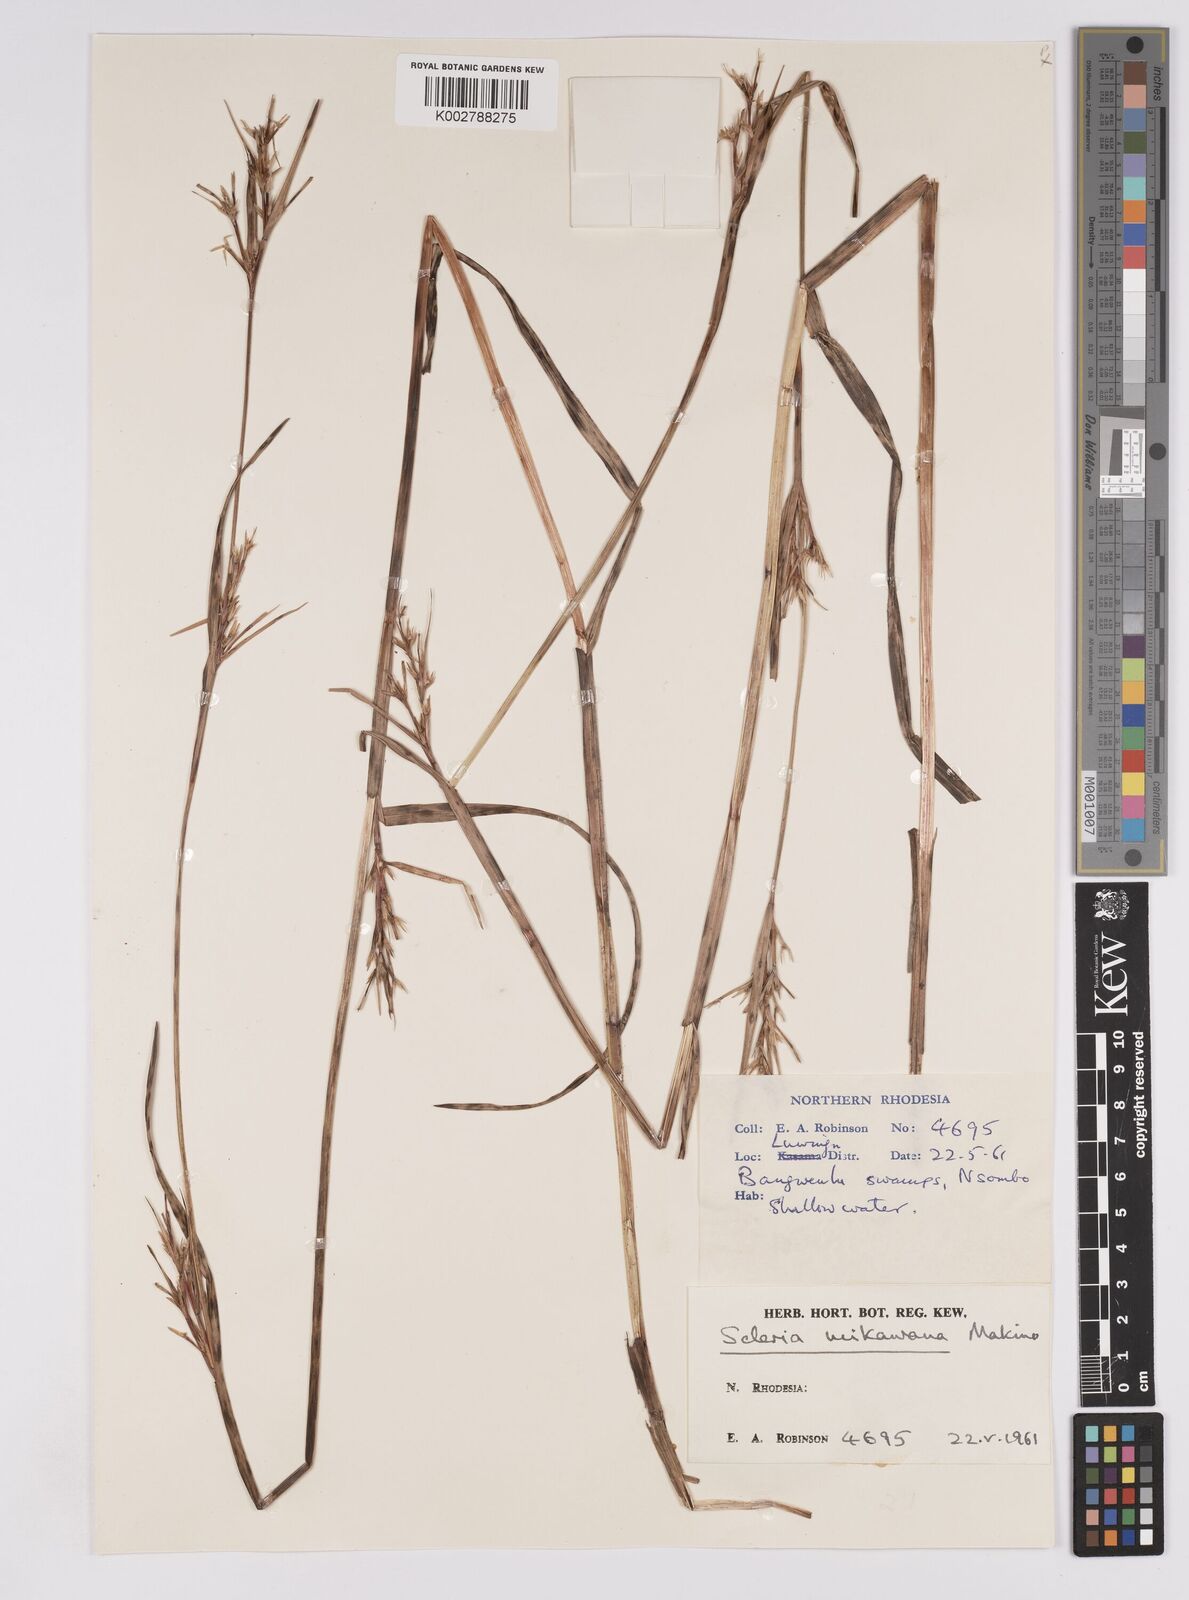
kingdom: Plantae
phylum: Tracheophyta
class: Liliopsida
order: Poales
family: Cyperaceae
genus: Scleria
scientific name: Scleria mikawana
